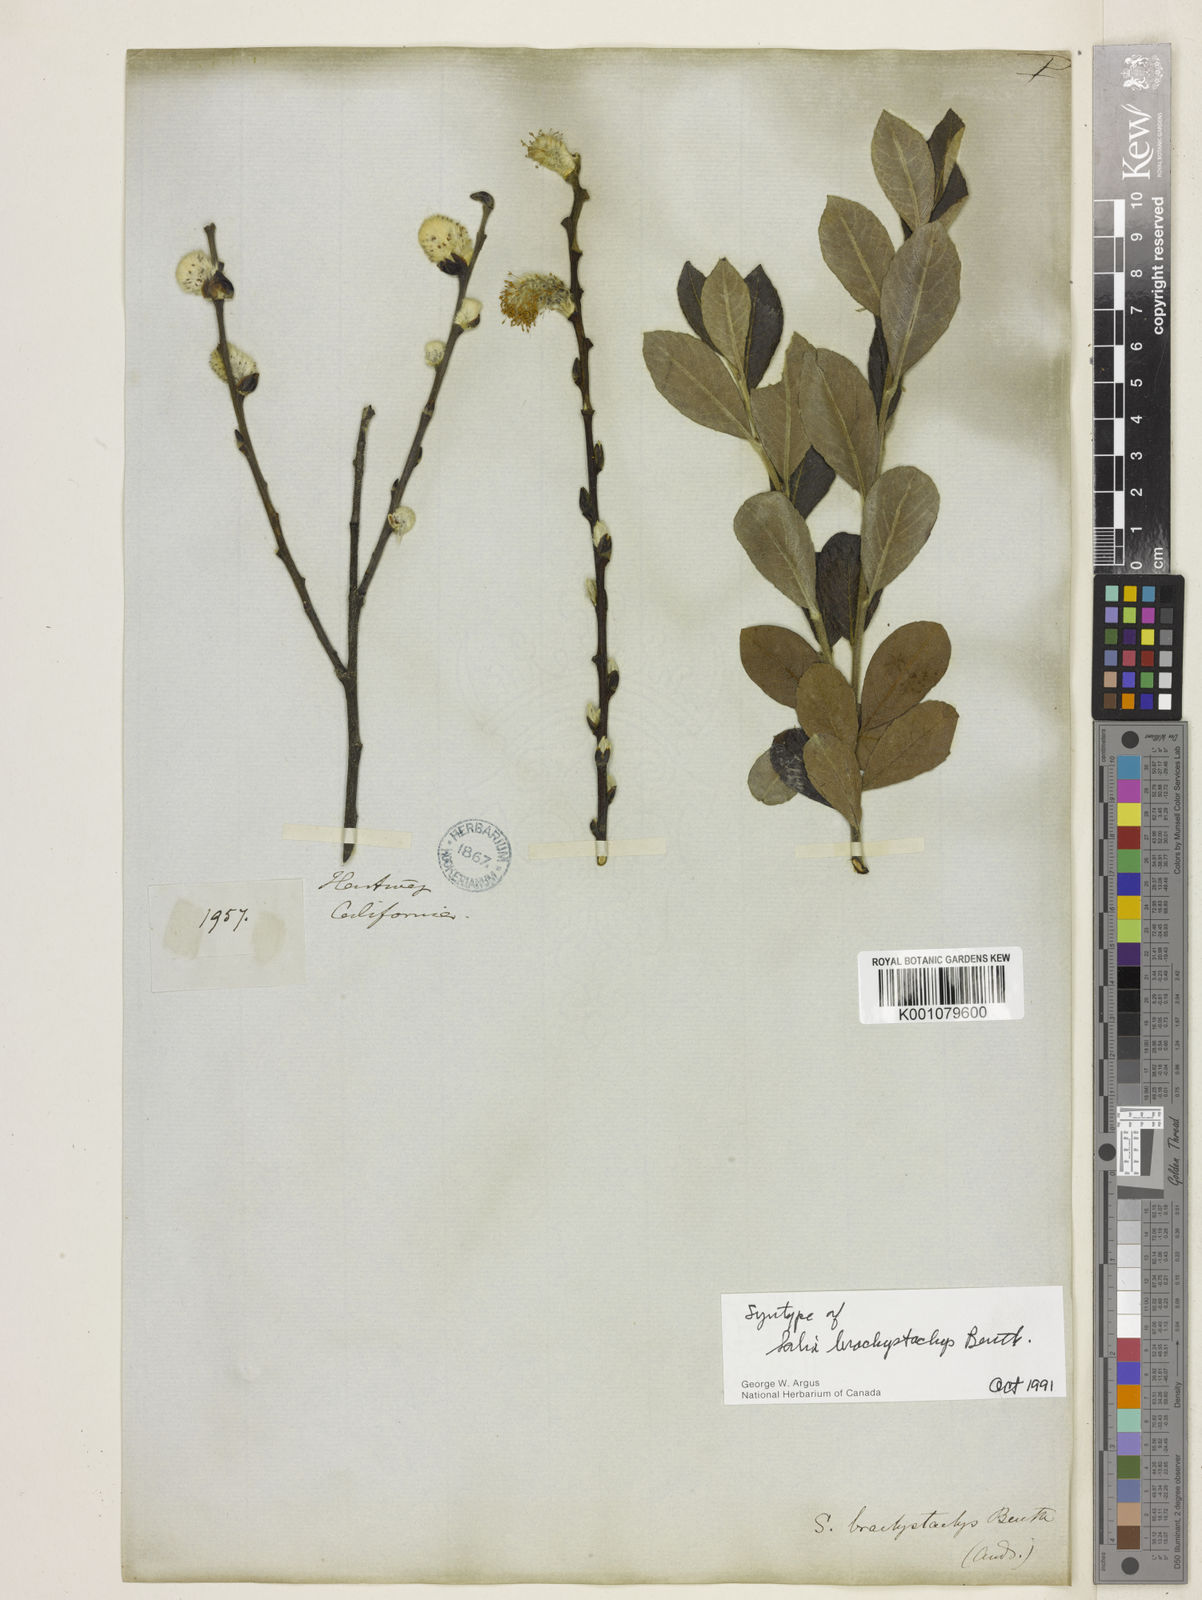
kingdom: Plantae
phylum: Tracheophyta
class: Magnoliopsida
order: Malpighiales
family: Salicaceae
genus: Salix
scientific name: Salix
